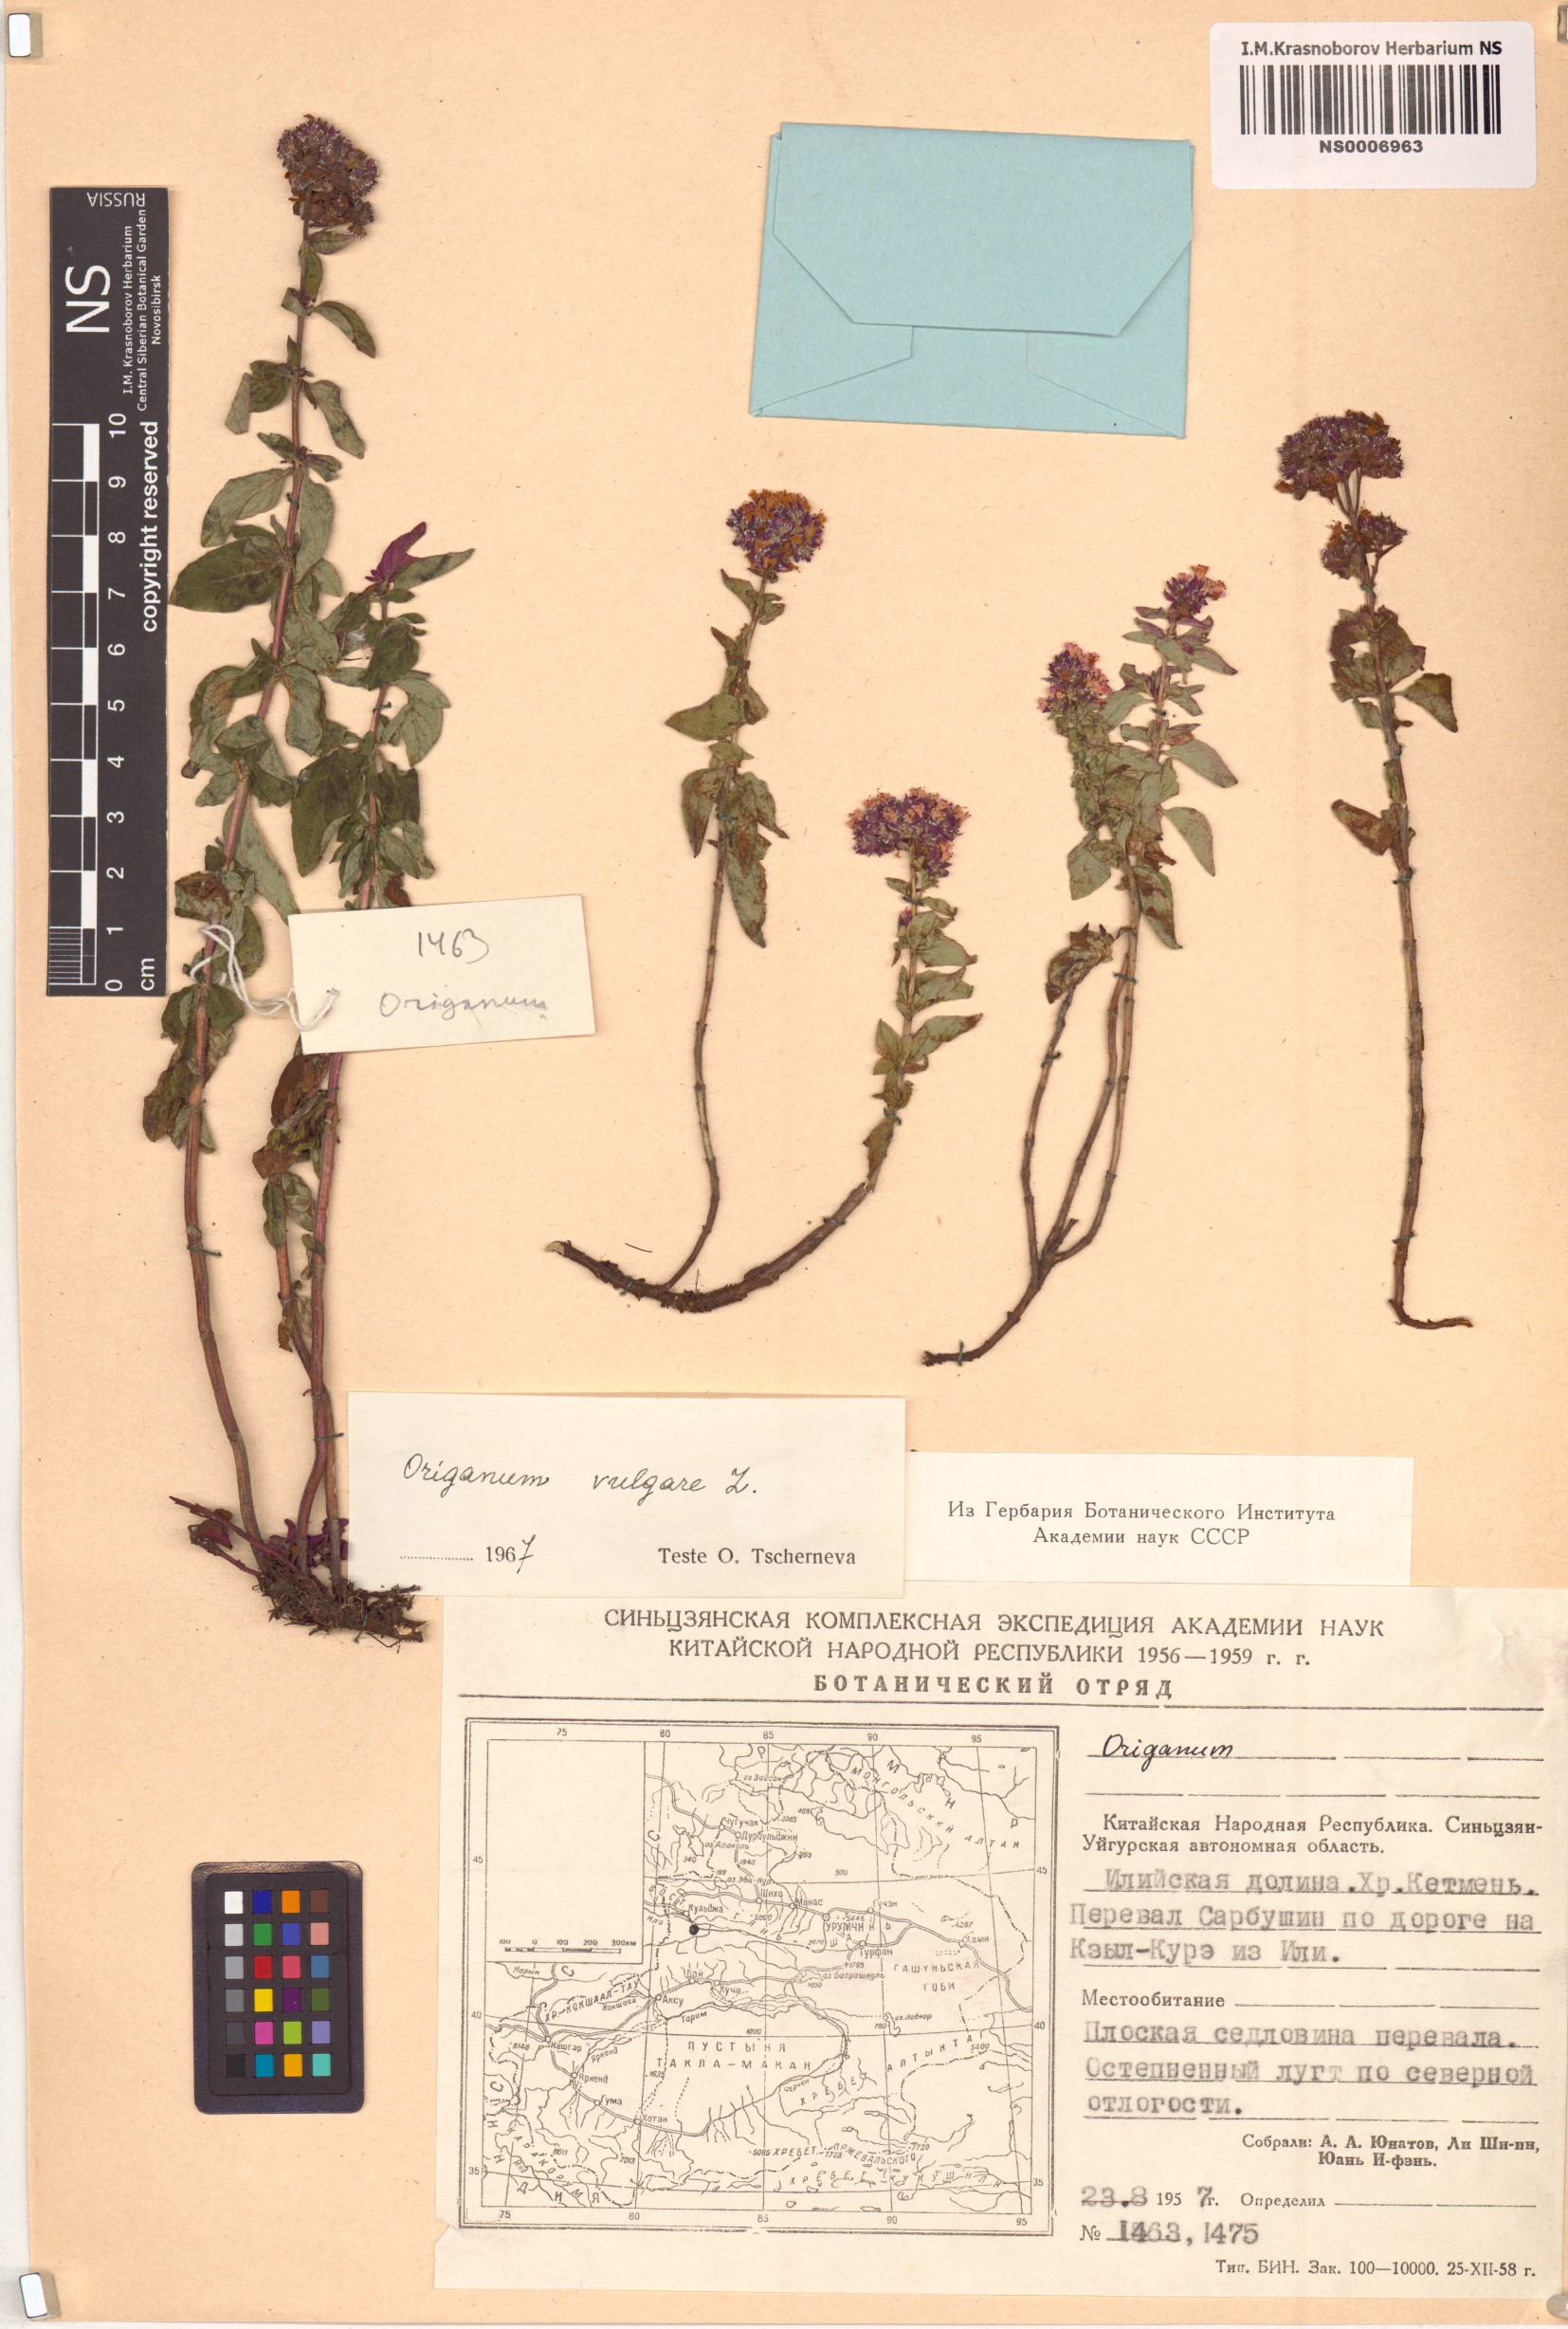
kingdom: Plantae
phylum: Tracheophyta
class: Magnoliopsida
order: Lamiales
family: Lamiaceae
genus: Origanum
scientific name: Origanum vulgare
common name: Wild marjoram
